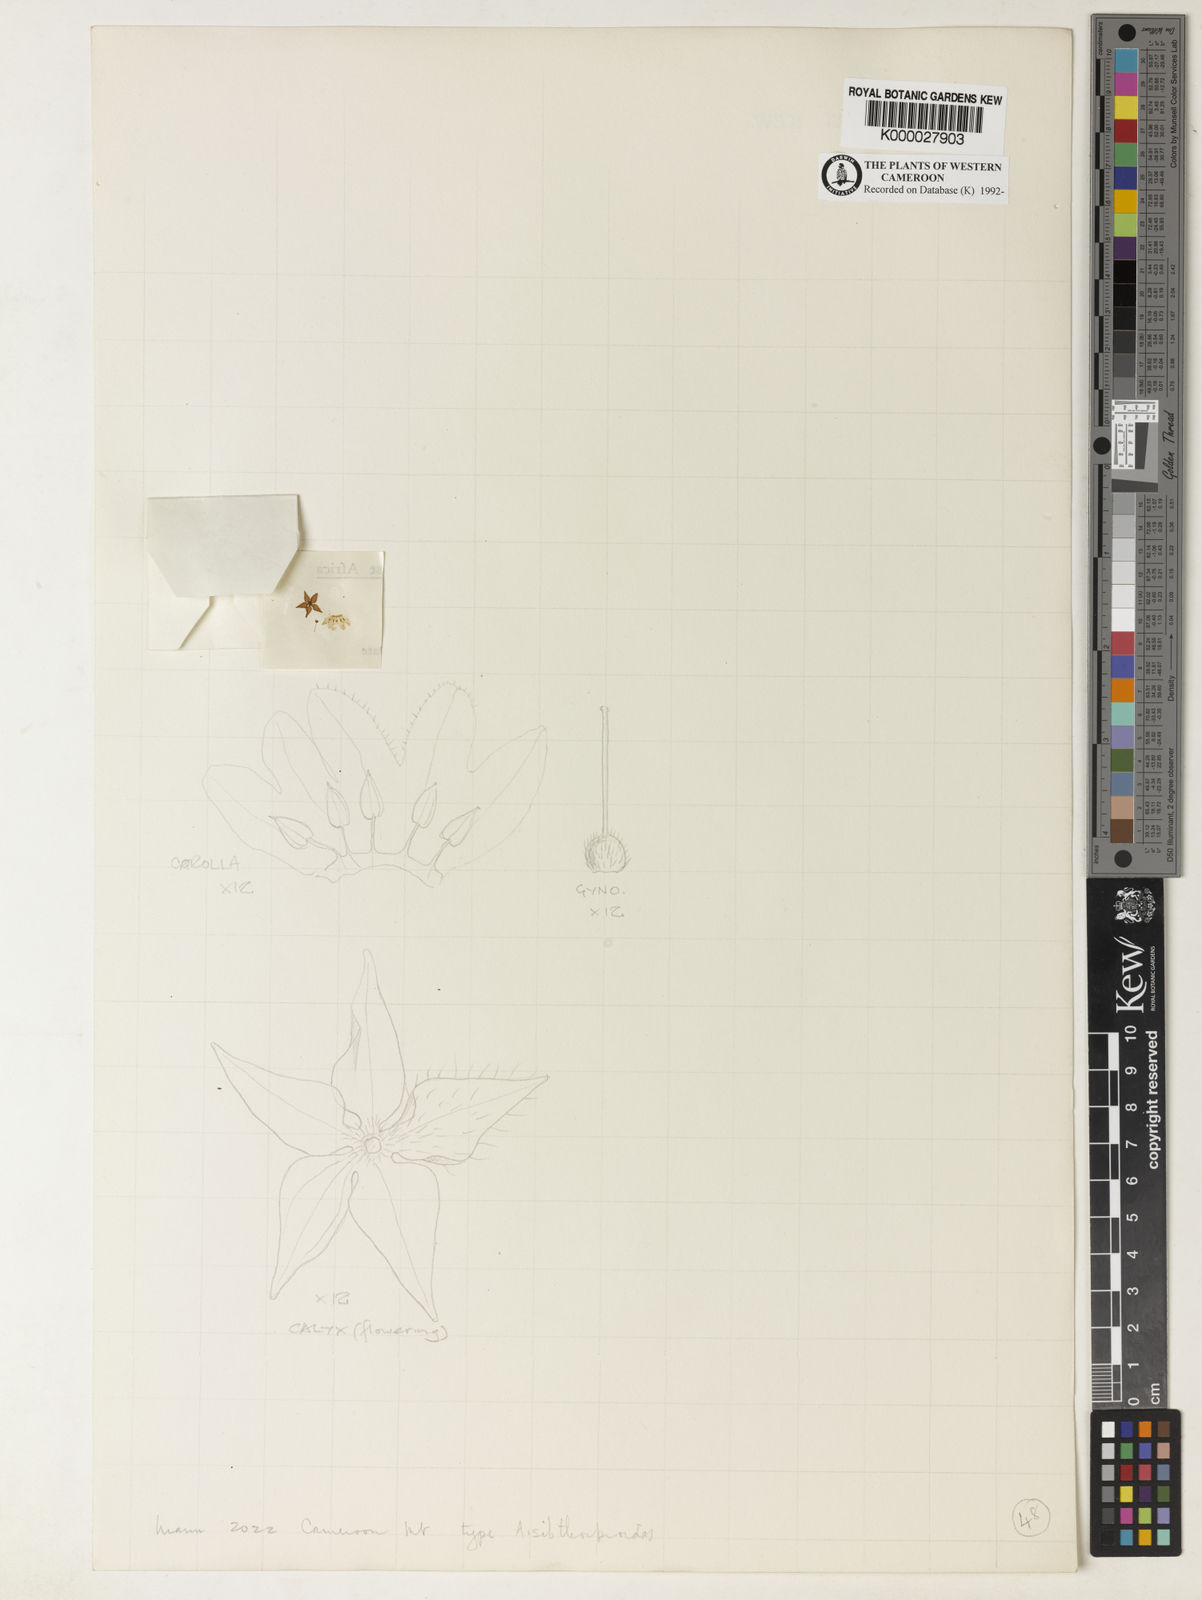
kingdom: Plantae
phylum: Tracheophyta
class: Magnoliopsida
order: Ericales
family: Primulaceae
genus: Ardisiandra
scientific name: Ardisiandra sibthorpioides
